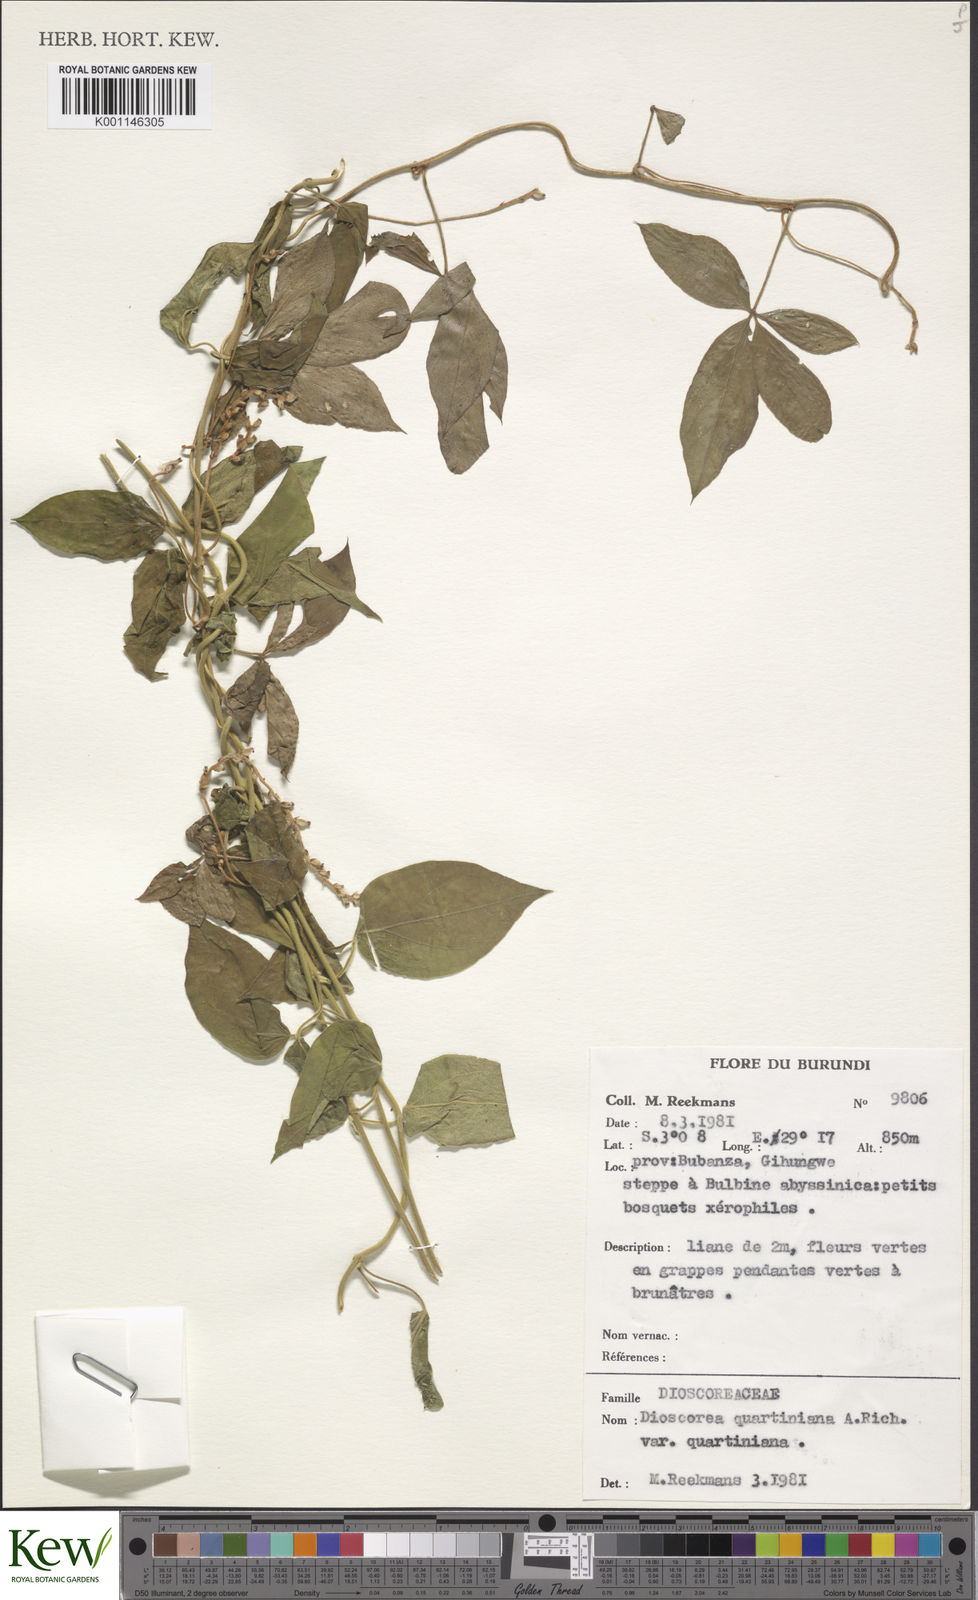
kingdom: Plantae
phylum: Tracheophyta
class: Liliopsida
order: Dioscoreales
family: Dioscoreaceae
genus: Dioscorea
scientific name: Dioscorea quartiniana
